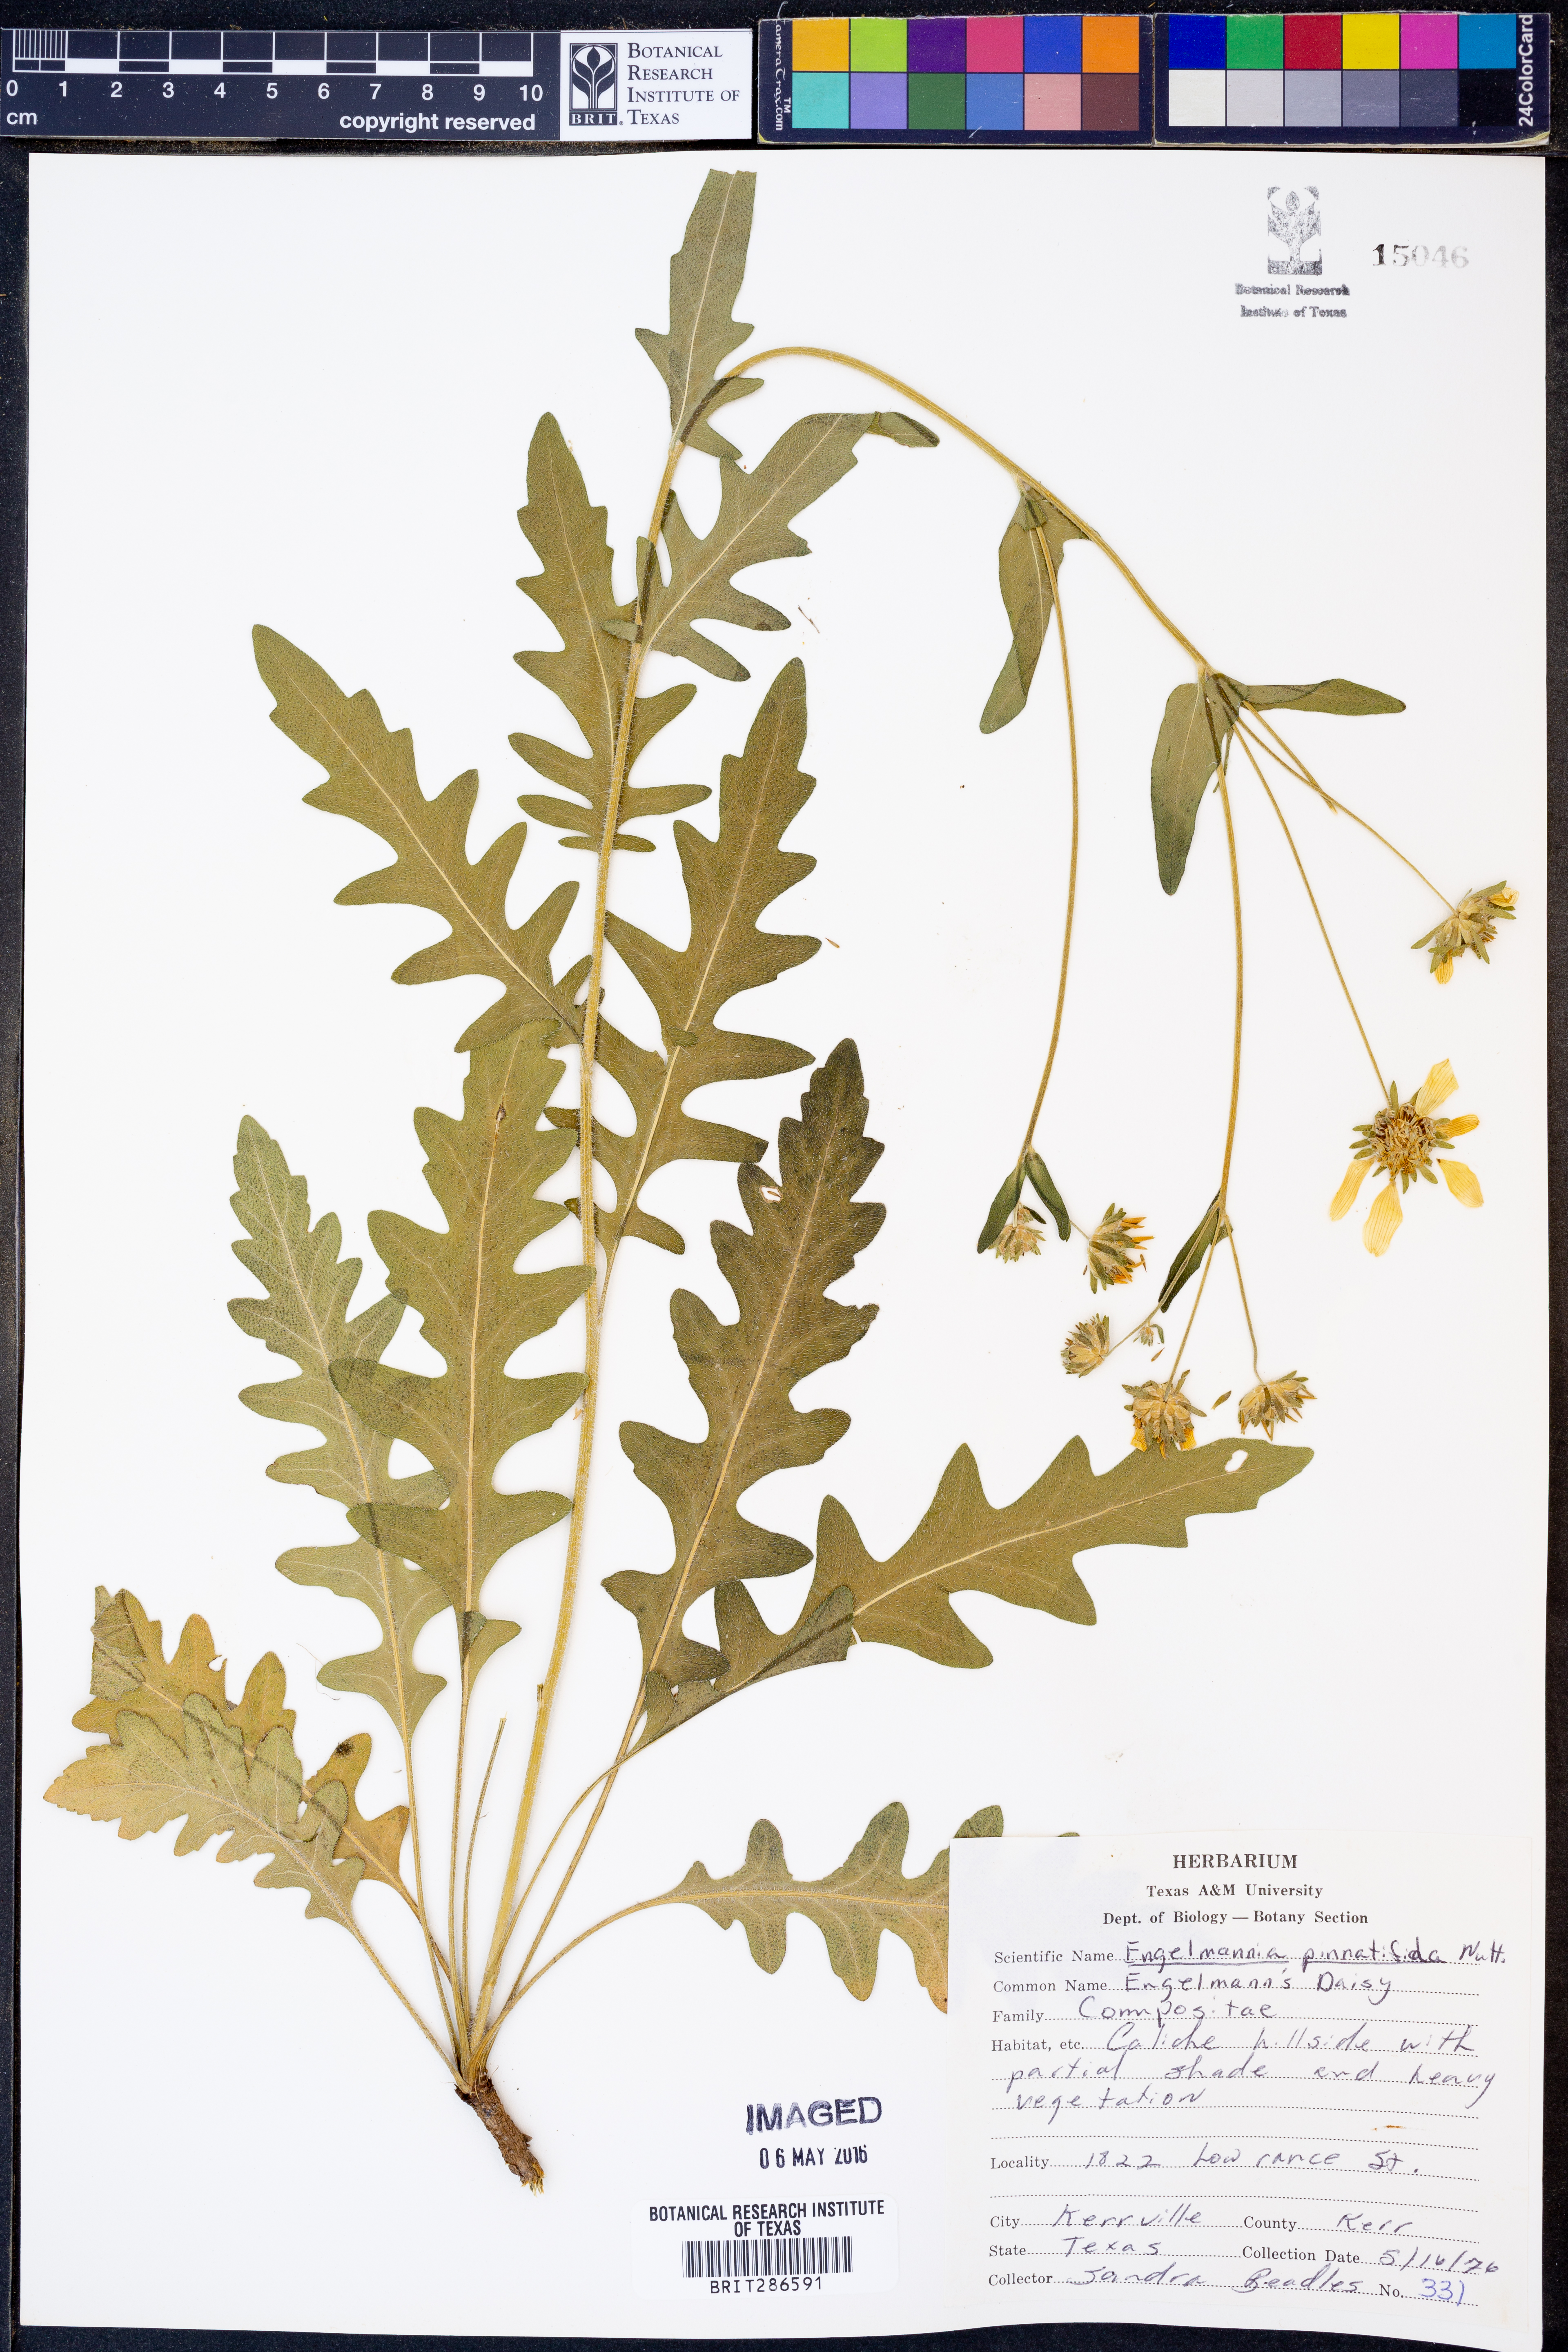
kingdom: Plantae
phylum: Tracheophyta
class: Magnoliopsida
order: Asterales
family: Asteraceae
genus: Engelmannia
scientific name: Engelmannia peristenia
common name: Engelmann's daisy
